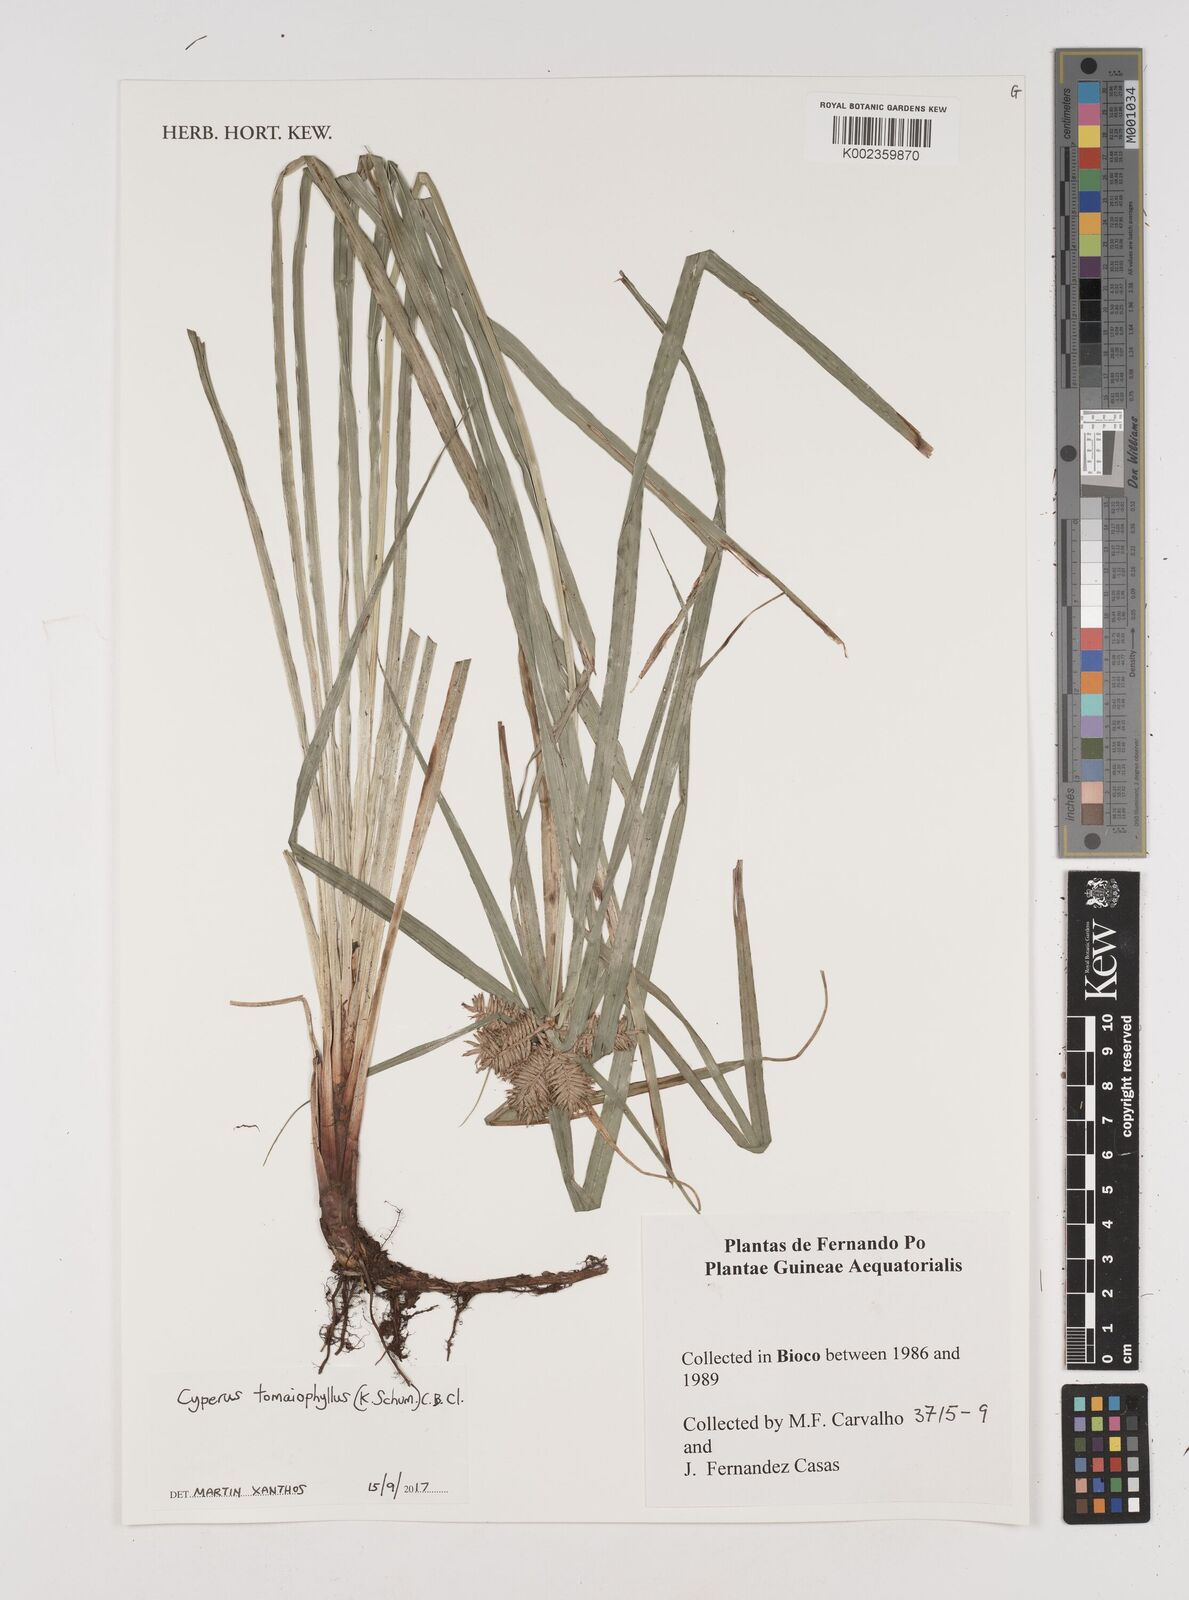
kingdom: Plantae
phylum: Tracheophyta
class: Liliopsida
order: Poales
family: Cyperaceae
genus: Cyperus
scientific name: Cyperus tomaiophyllus
